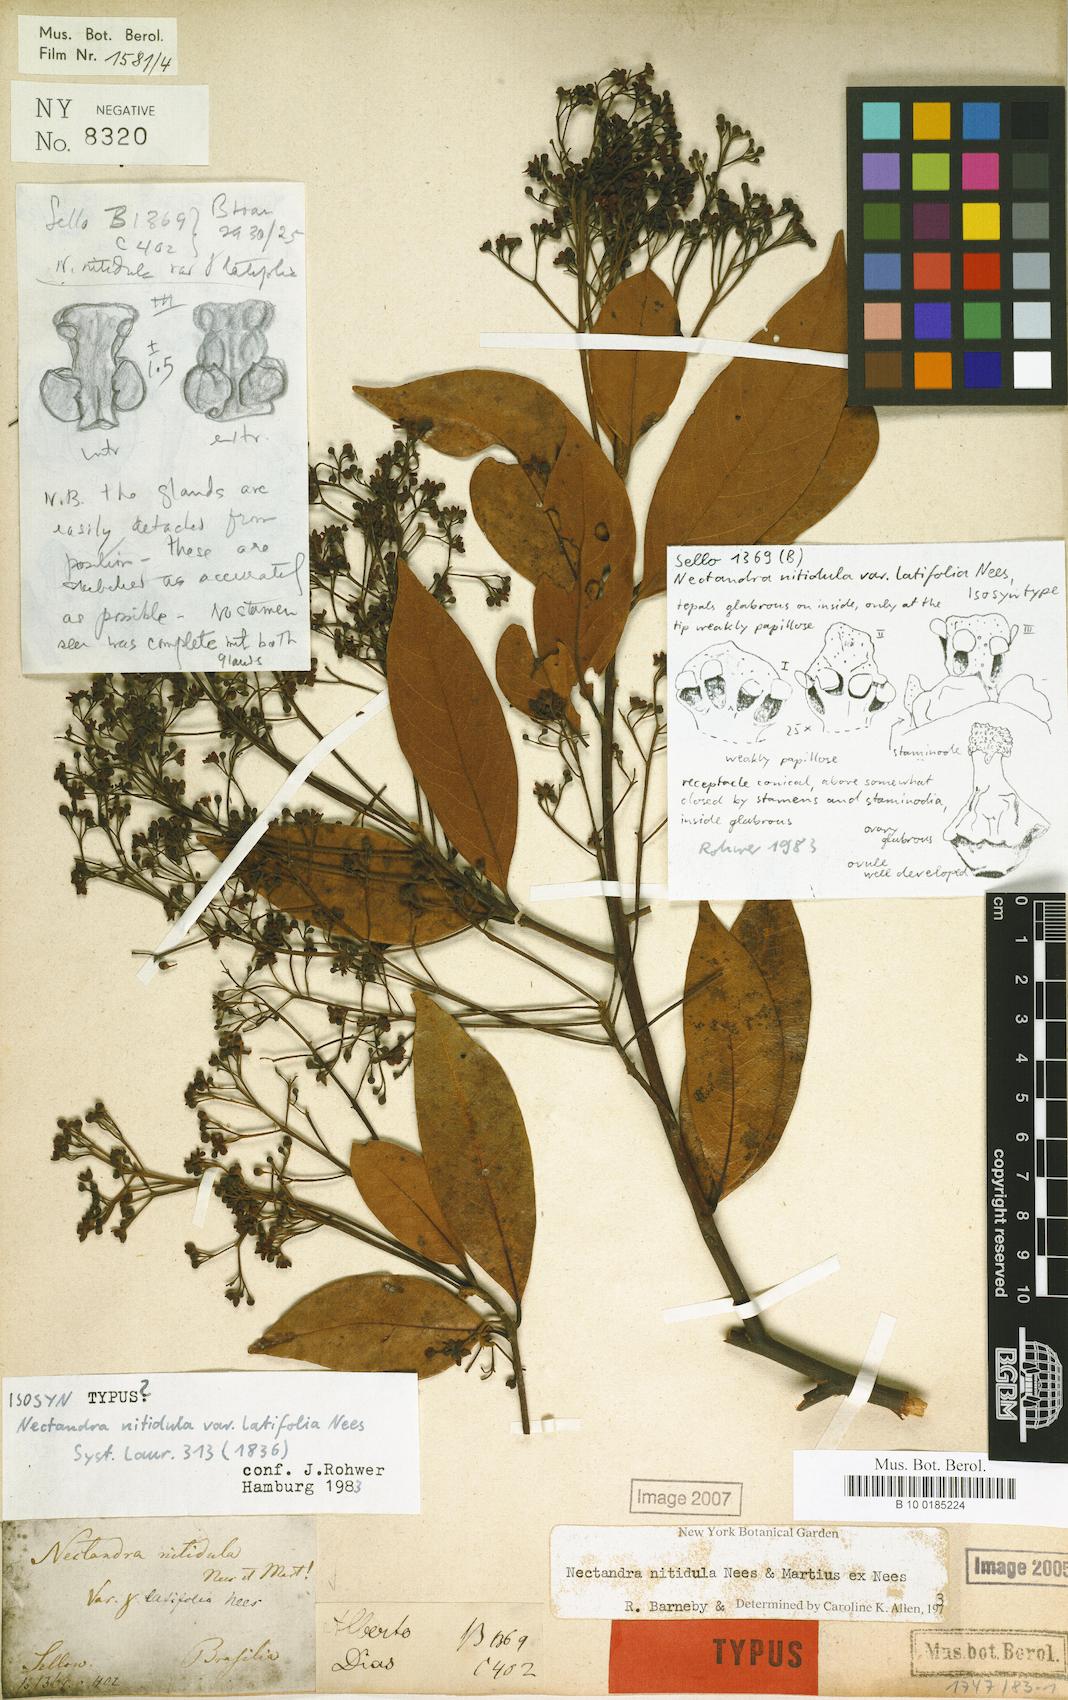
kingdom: Plantae
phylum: Tracheophyta
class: Magnoliopsida
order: Laurales
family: Lauraceae
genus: Nectandra
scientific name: Nectandra nitidula
